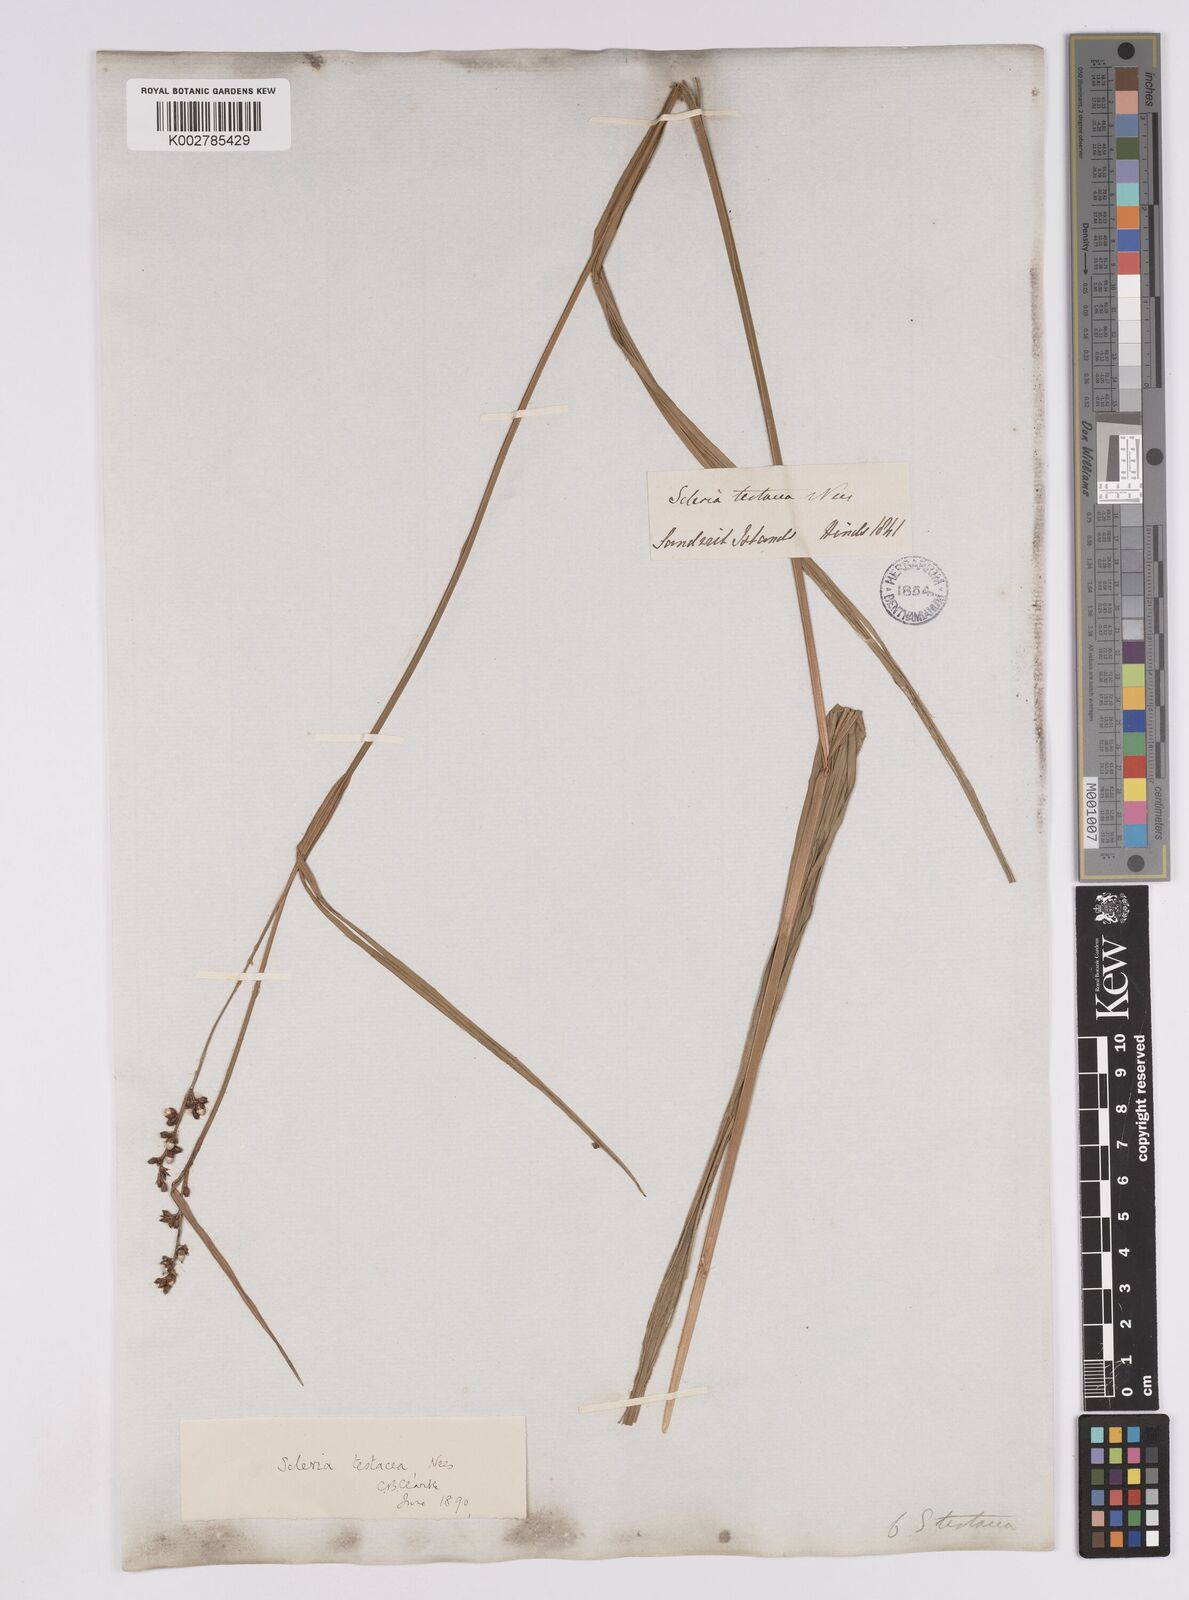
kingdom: Plantae
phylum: Tracheophyta
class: Liliopsida
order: Poales
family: Cyperaceae
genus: Scleria
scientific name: Scleria testacea
